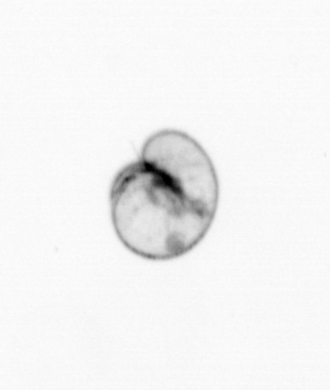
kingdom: Chromista
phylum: Myzozoa
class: Dinophyceae
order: Noctilucales
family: Noctilucaceae
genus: Noctiluca
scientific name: Noctiluca scintillans
